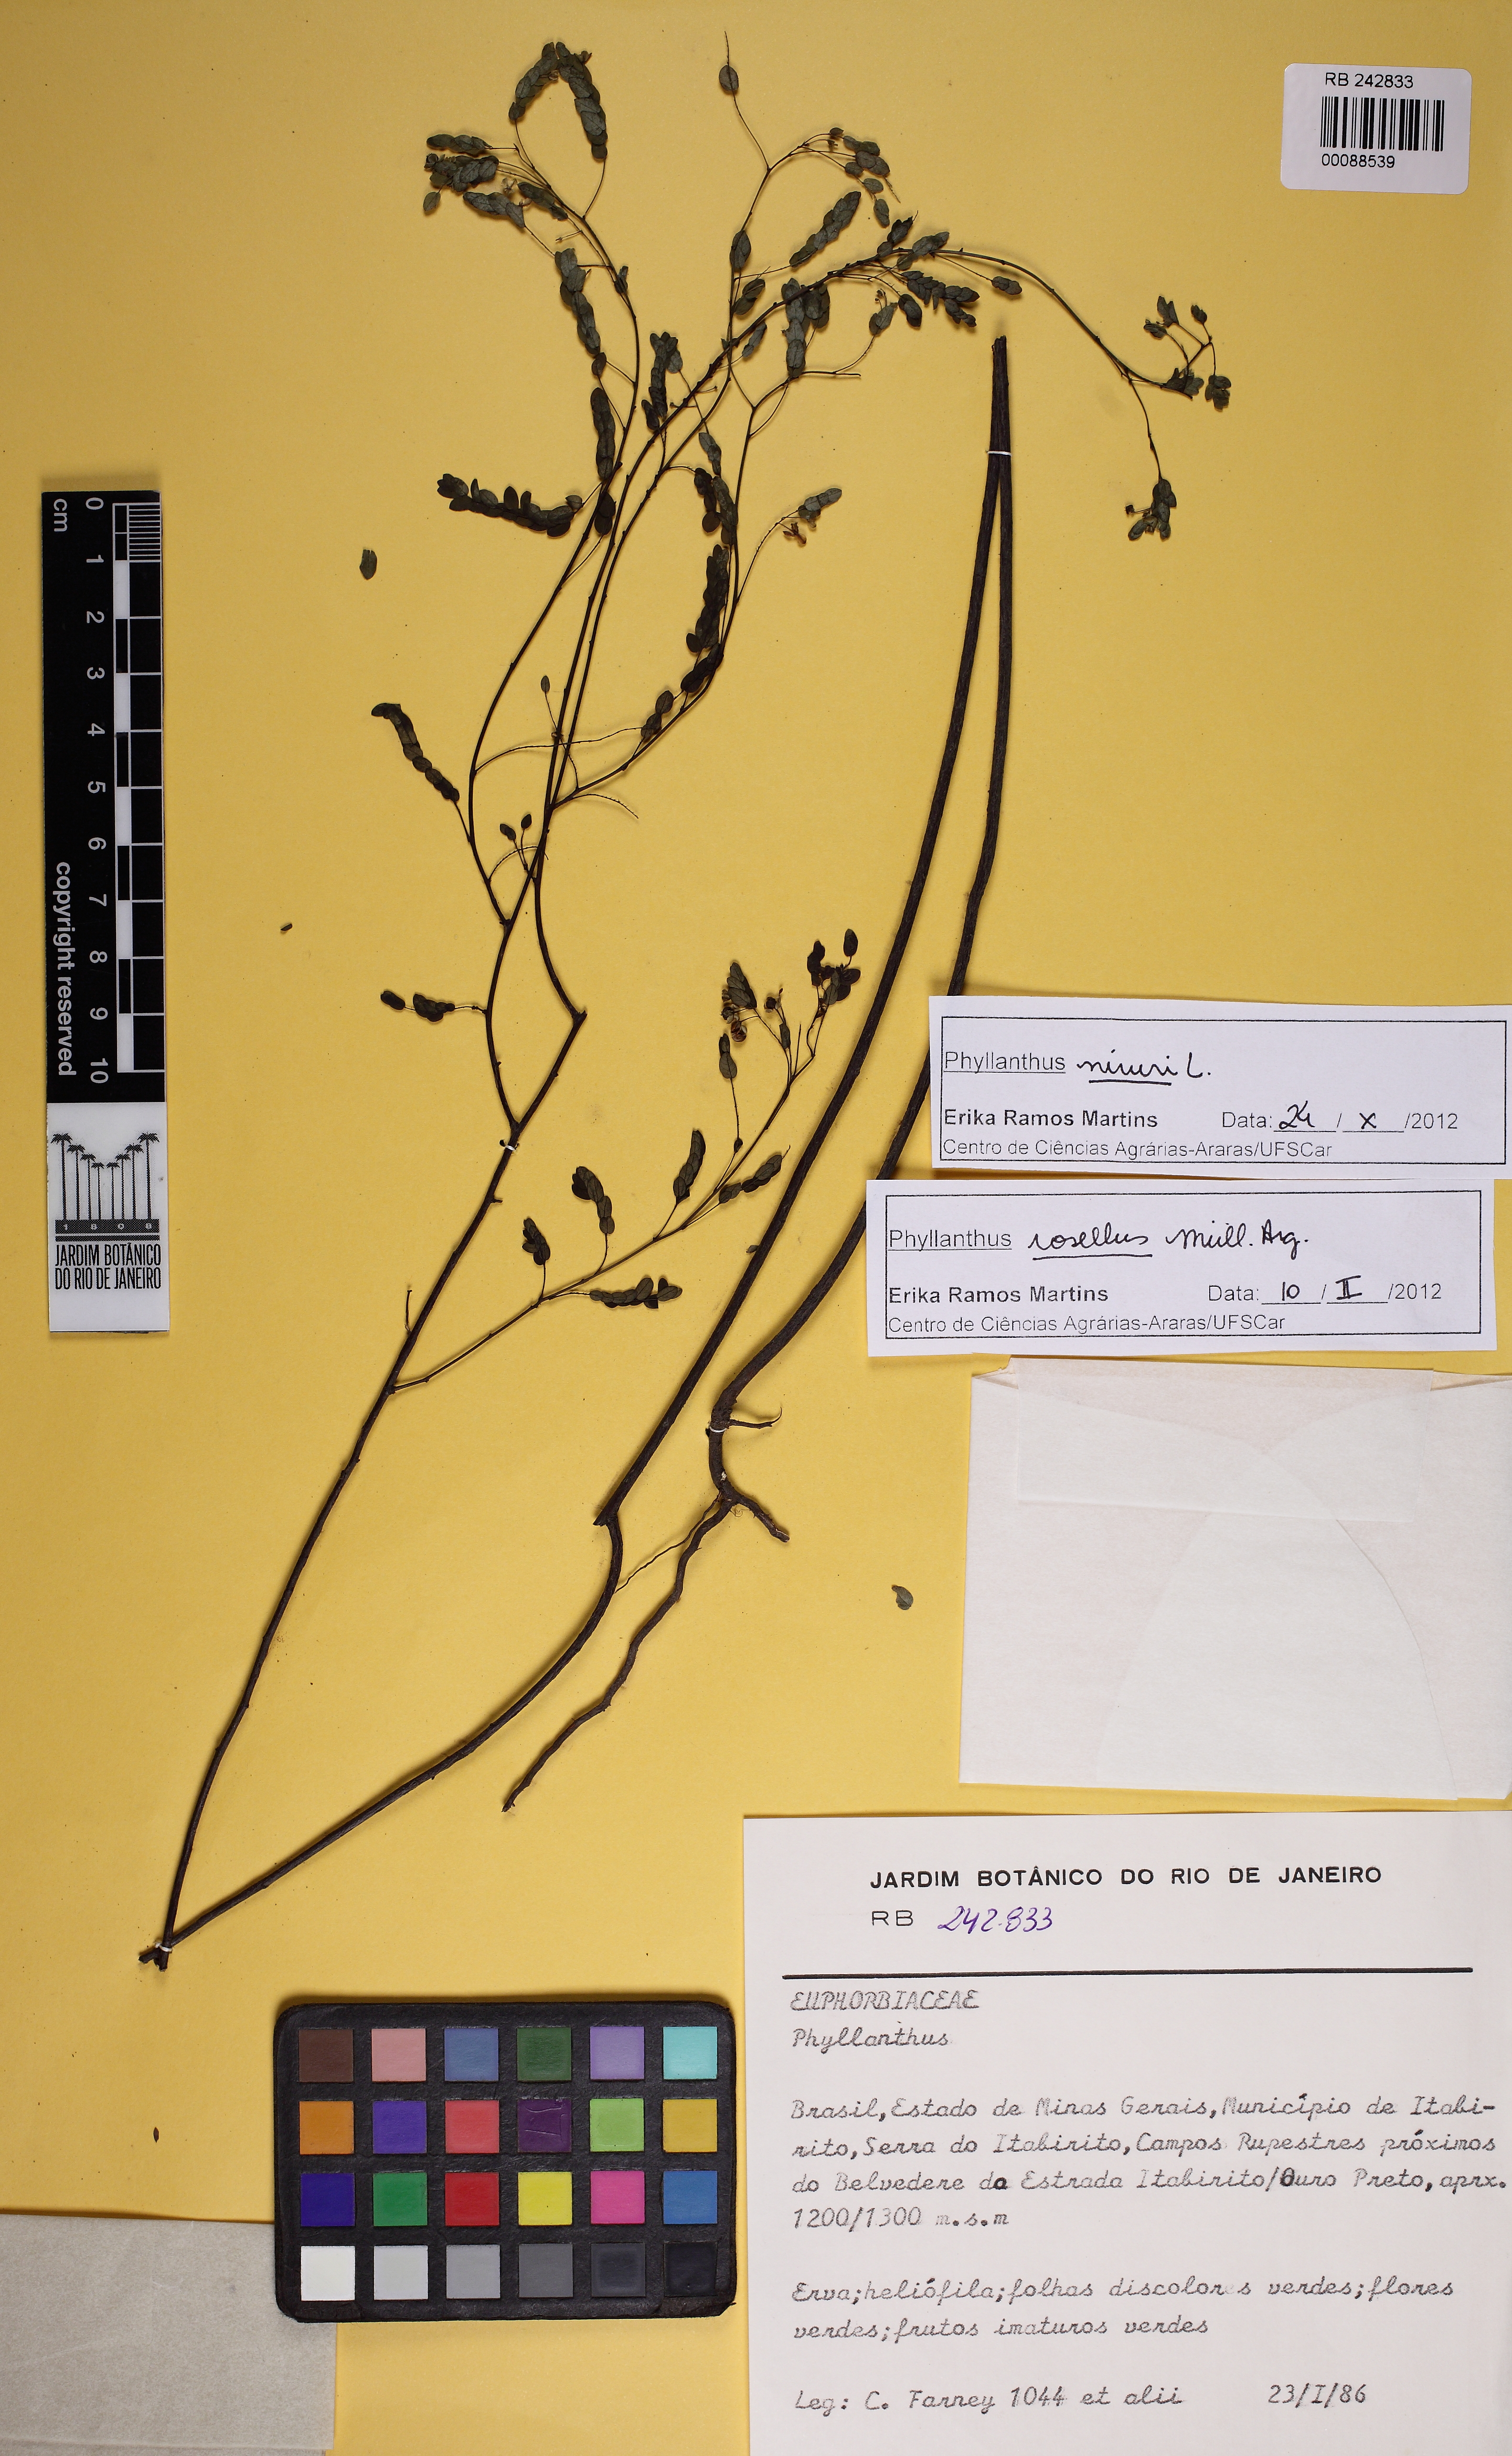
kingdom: Plantae
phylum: Tracheophyta
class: Magnoliopsida
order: Malpighiales
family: Phyllanthaceae
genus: Phyllanthus
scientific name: Phyllanthus niruri
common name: Niruri
